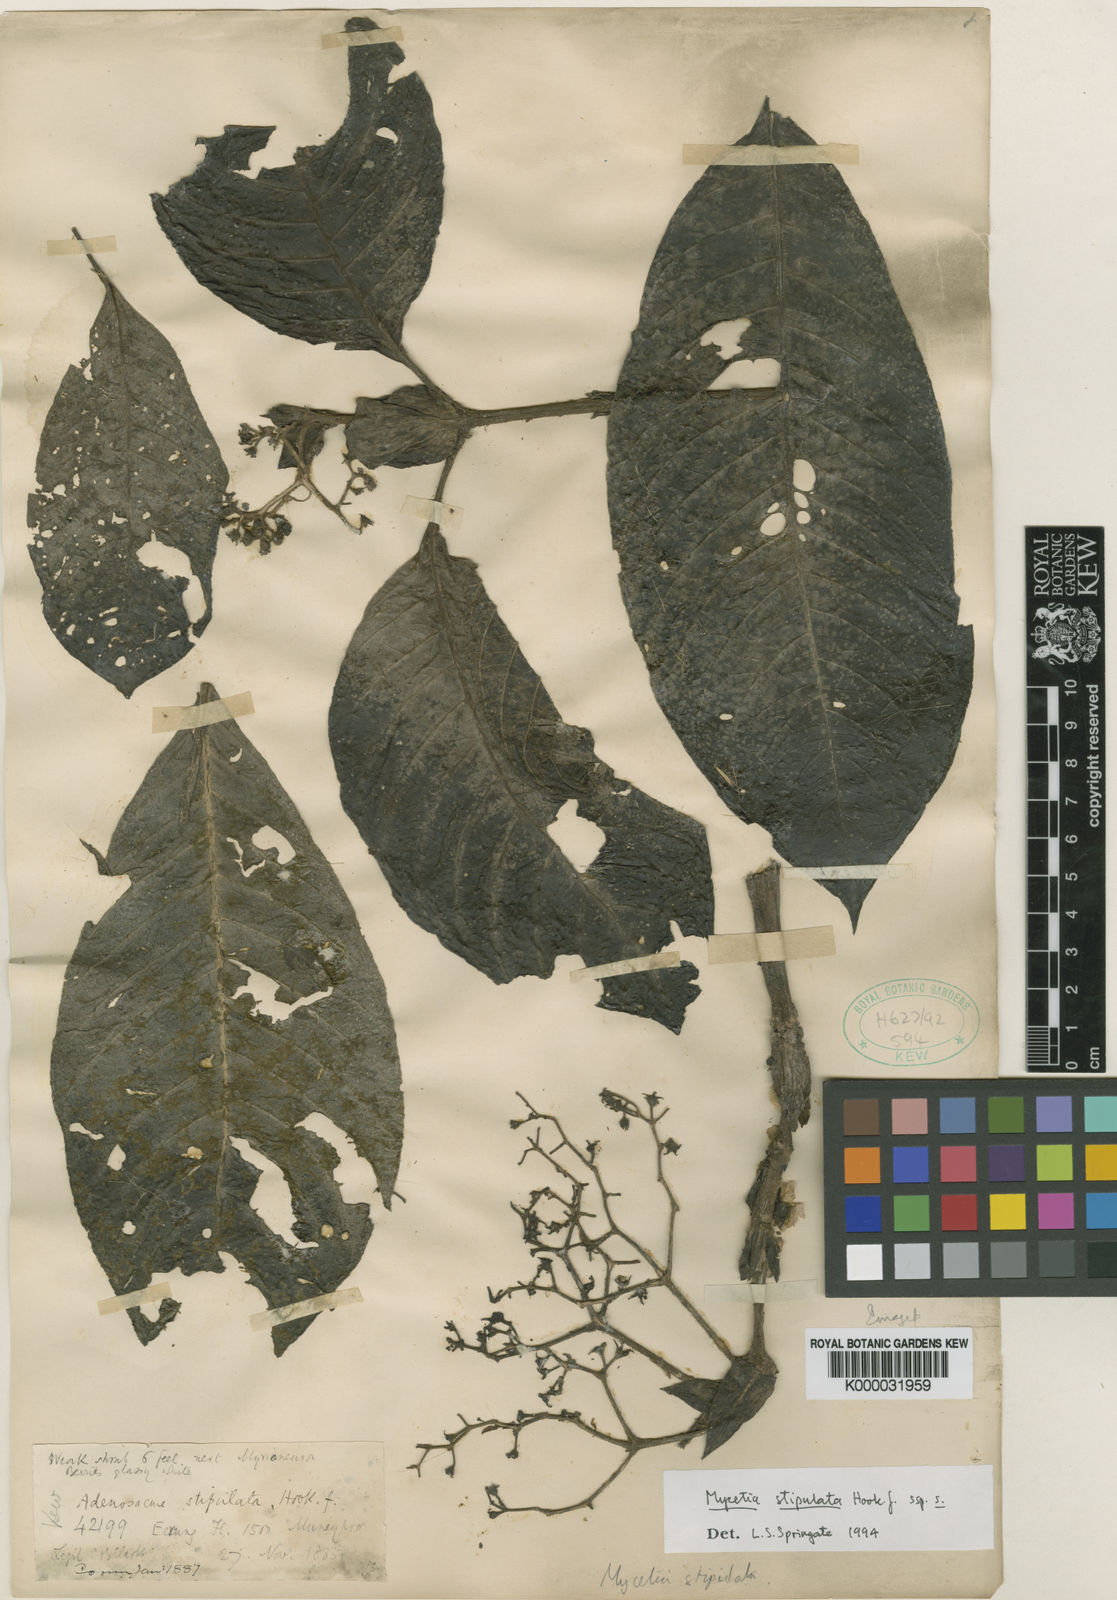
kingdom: Plantae
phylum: Tracheophyta
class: Magnoliopsida
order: Gentianales
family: Rubiaceae
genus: Mycetia
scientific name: Mycetia stipulata
